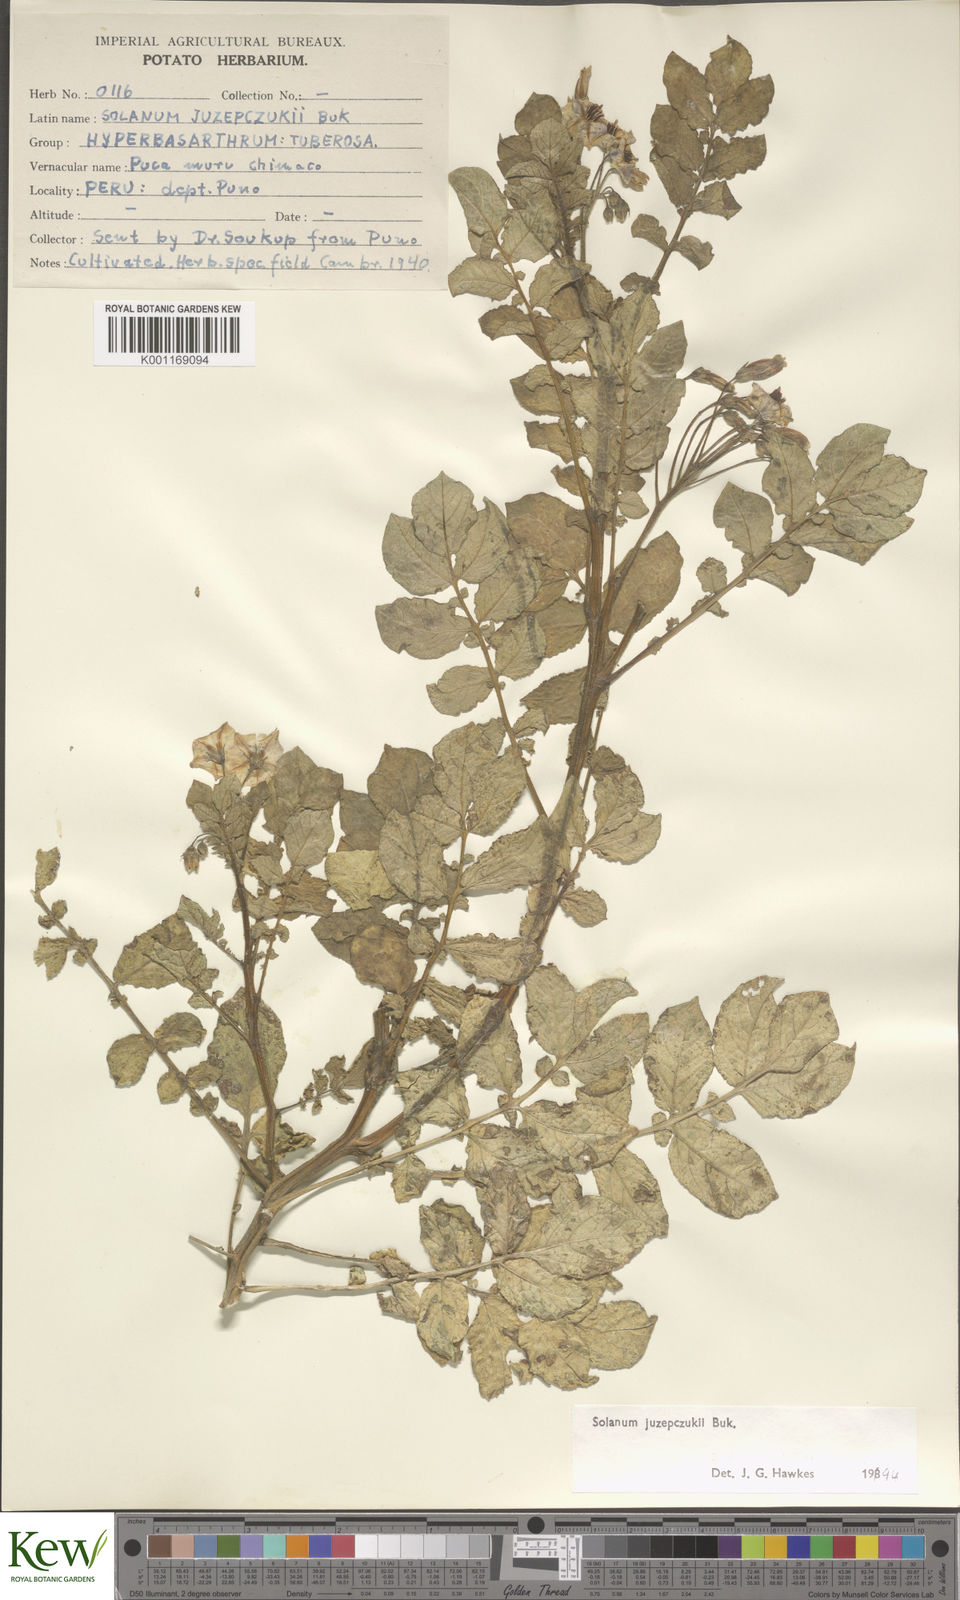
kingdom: Plantae
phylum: Tracheophyta
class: Magnoliopsida
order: Solanales
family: Solanaceae
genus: Solanum
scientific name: Solanum juzepczukii
